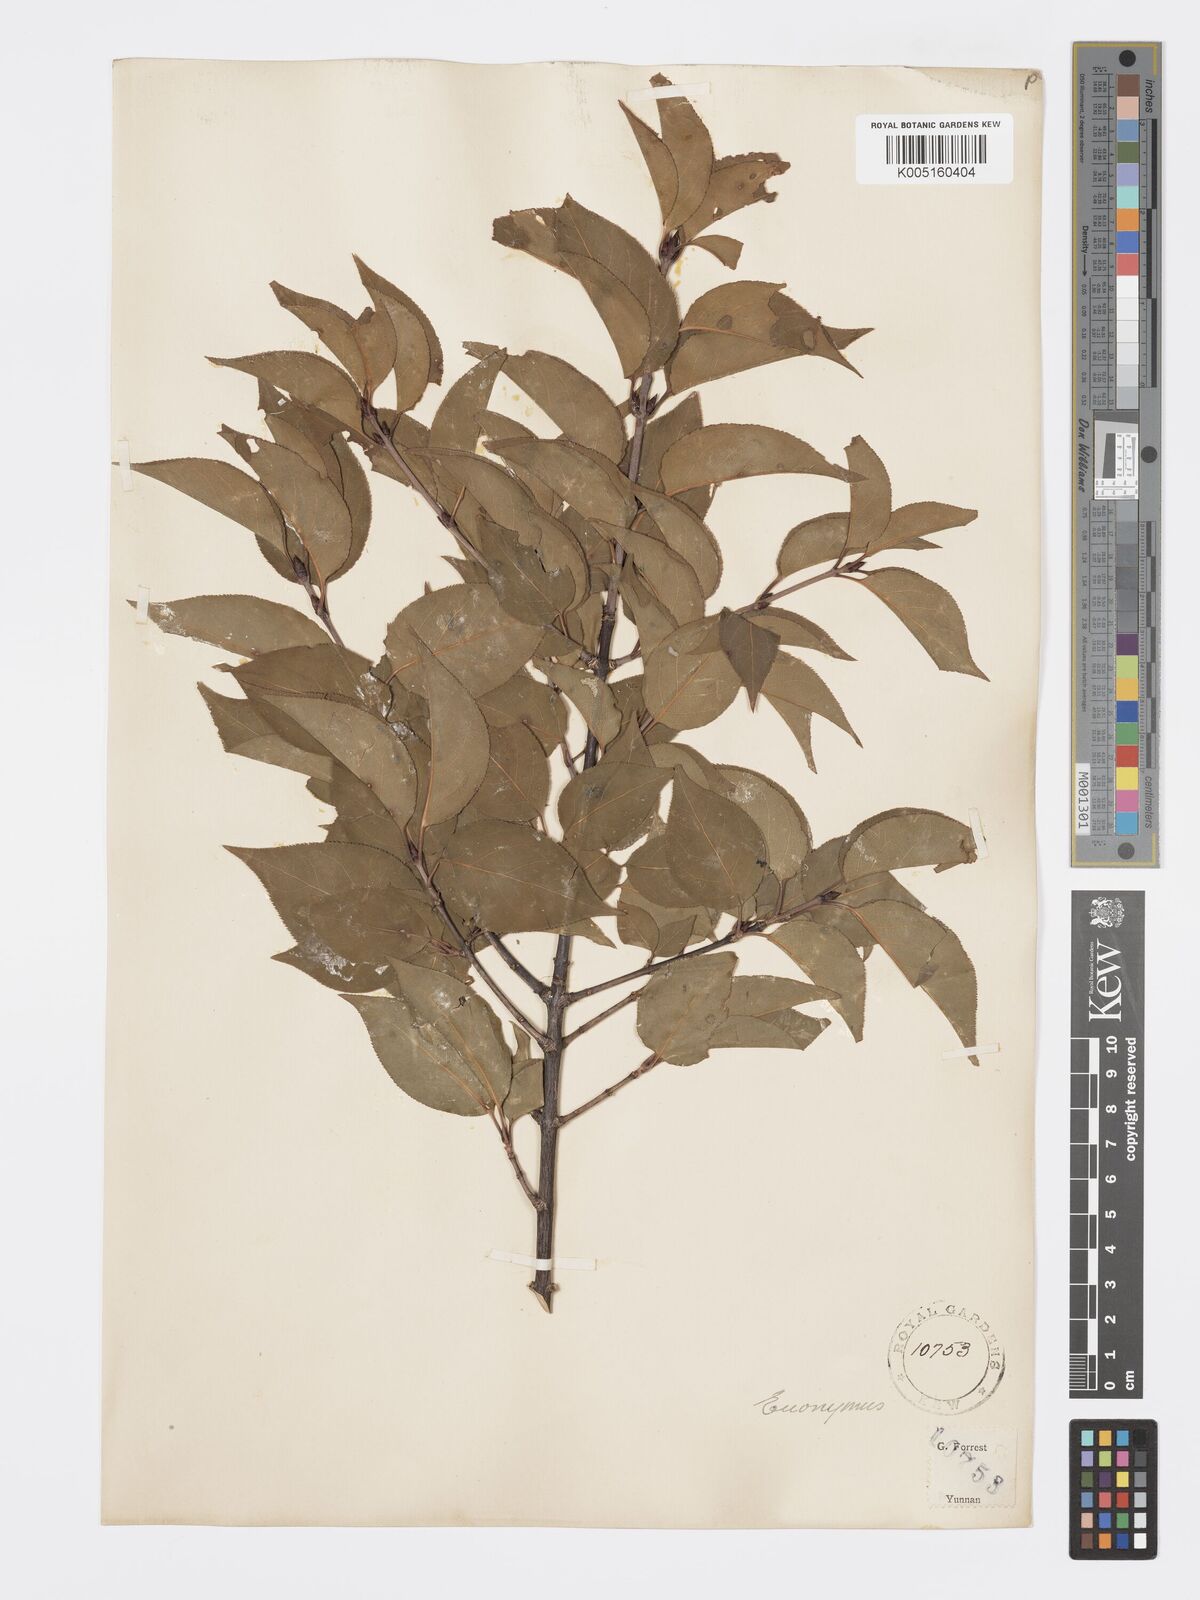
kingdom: Plantae
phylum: Tracheophyta
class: Magnoliopsida
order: Celastrales
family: Celastraceae
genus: Euonymus
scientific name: Euonymus
